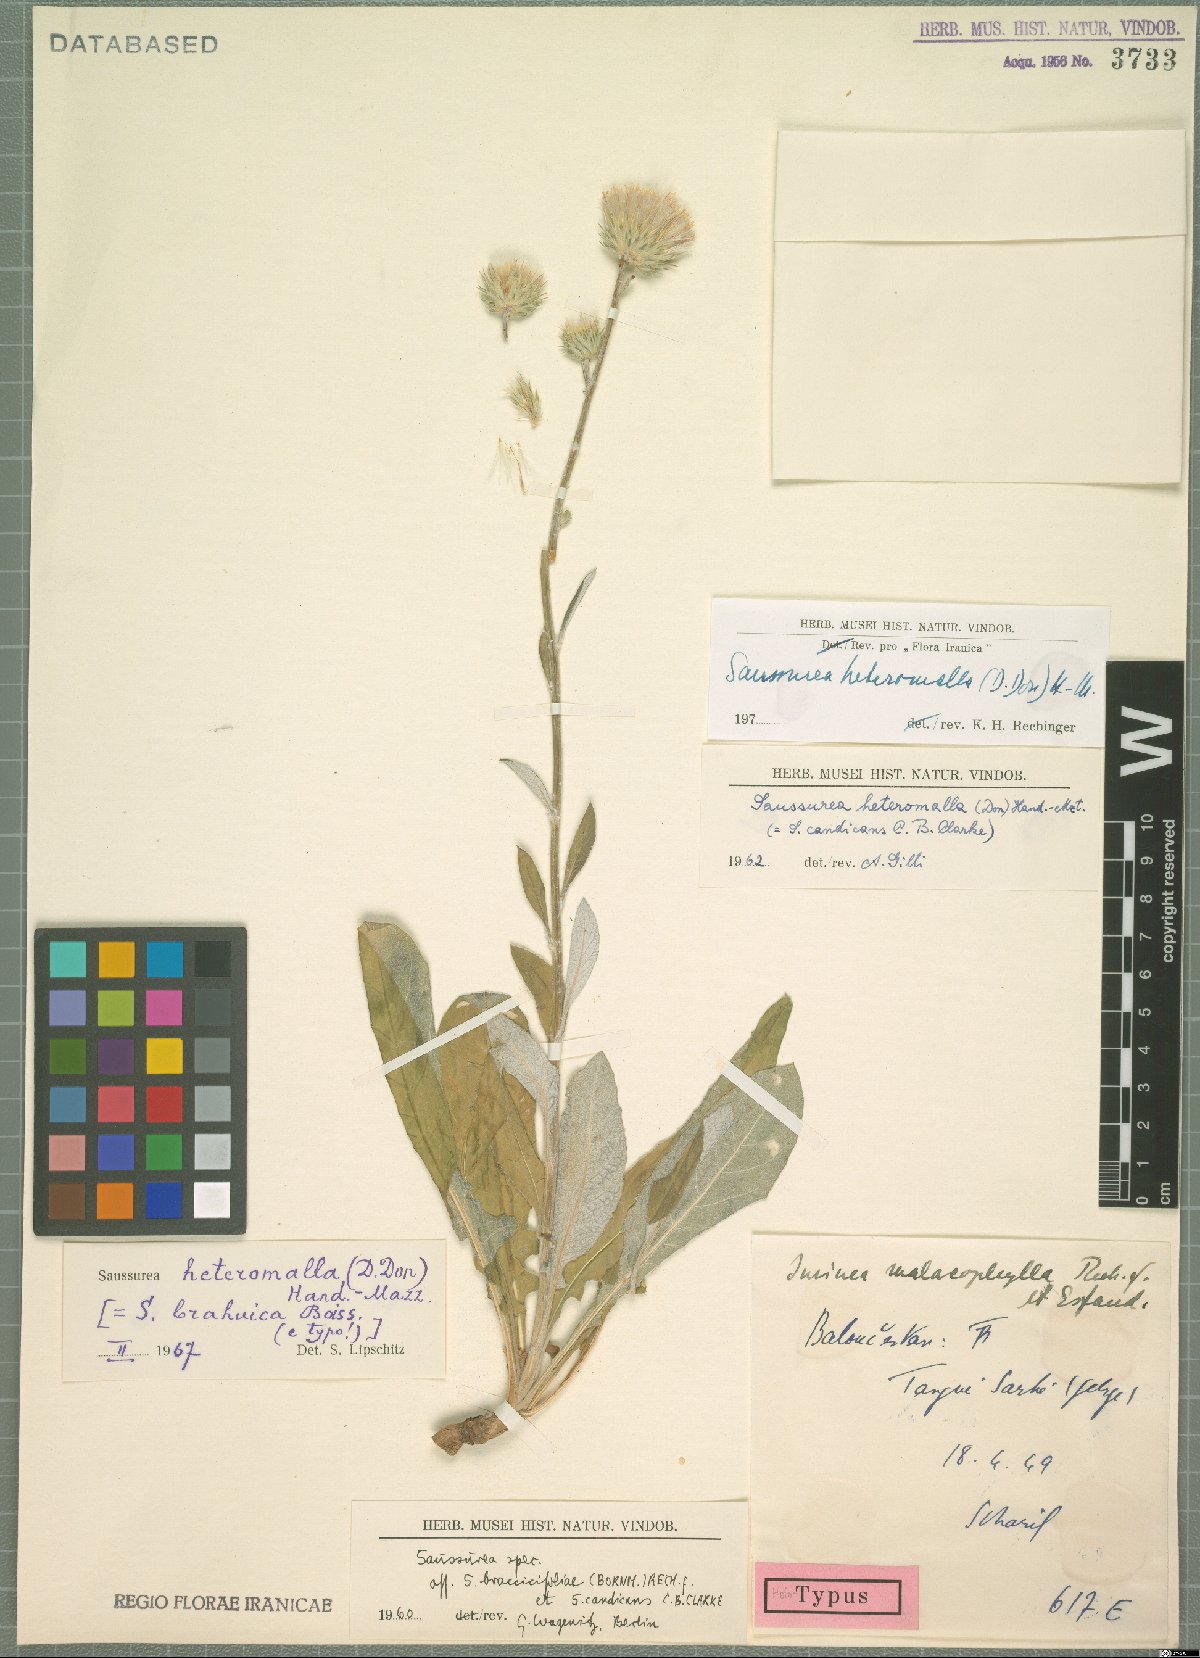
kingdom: Plantae
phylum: Tracheophyta
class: Magnoliopsida
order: Asterales
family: Asteraceae
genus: Jurinea
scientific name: Jurinea heteromalla
